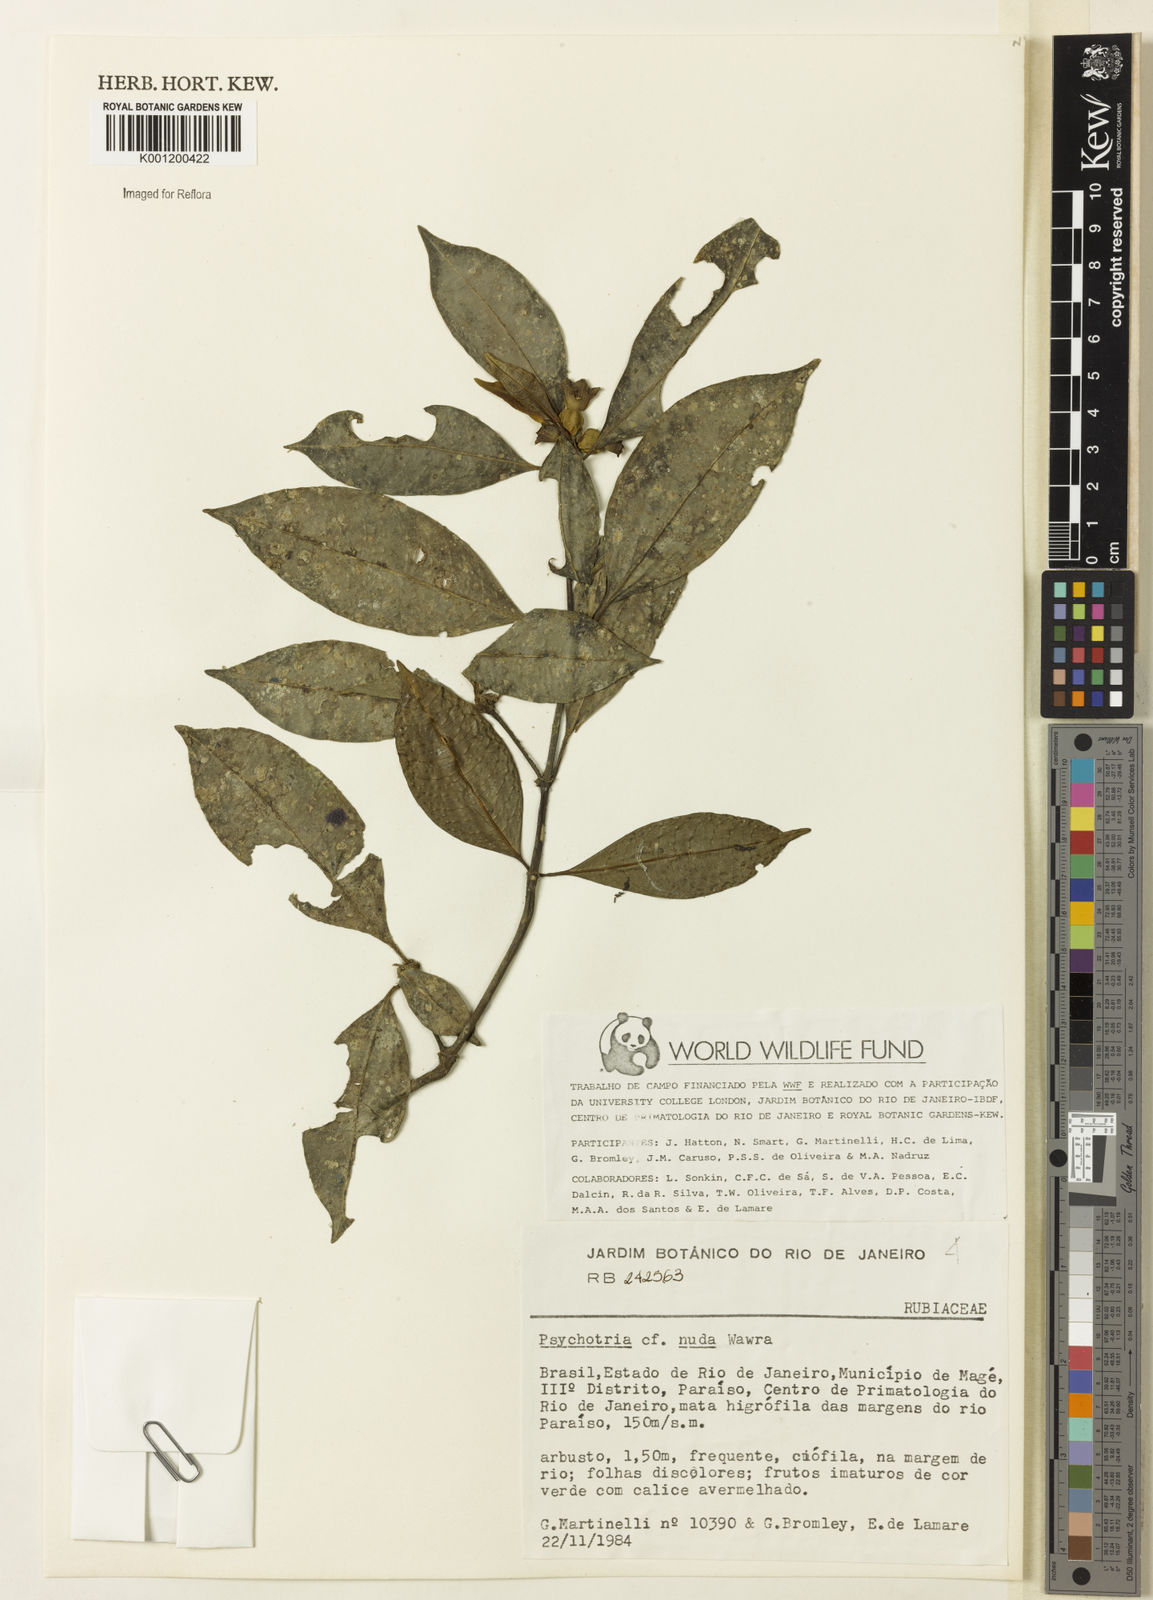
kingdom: Plantae
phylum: Tracheophyta
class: Magnoliopsida
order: Gentianales
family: Rubiaceae
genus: Psychotria
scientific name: Psychotria nuda
